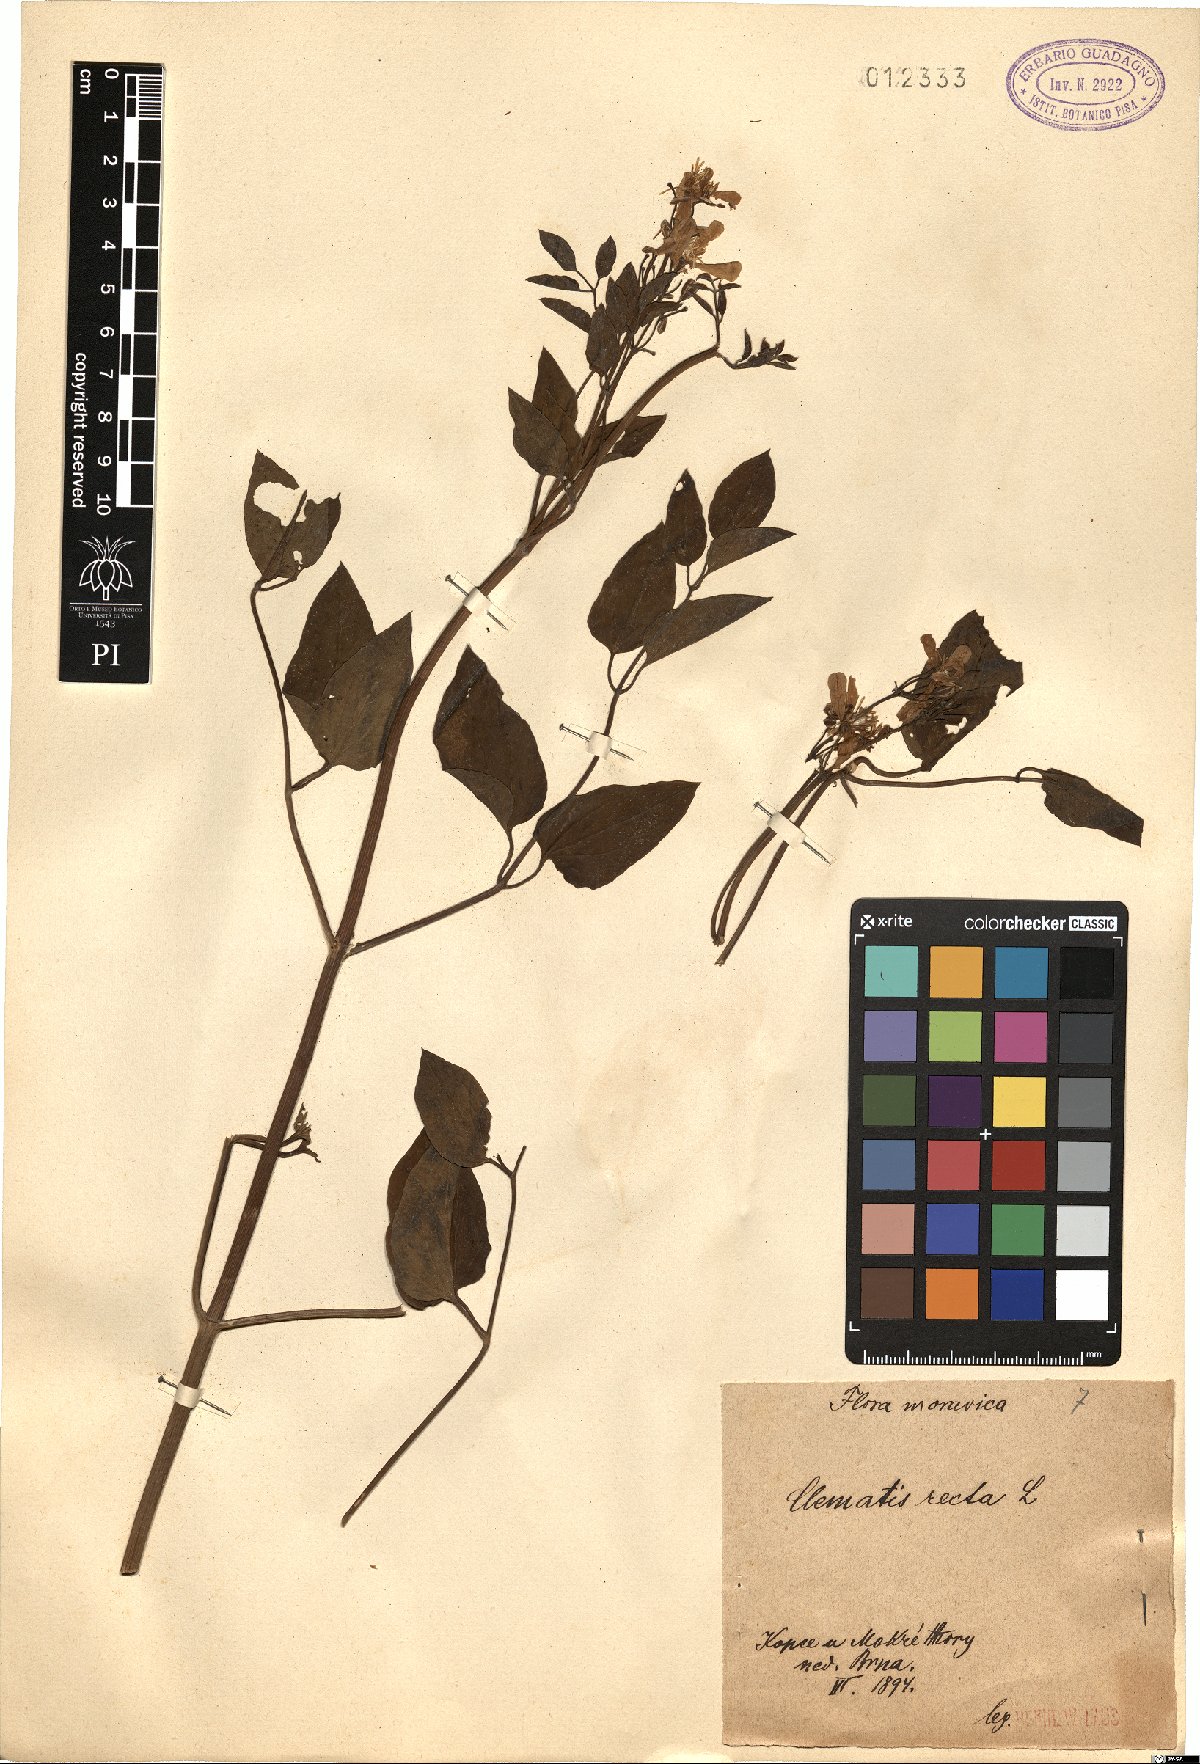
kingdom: Plantae
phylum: Tracheophyta
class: Magnoliopsida
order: Ranunculales
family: Ranunculaceae
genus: Clematis
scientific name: Clematis recta
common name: Ground clematis
